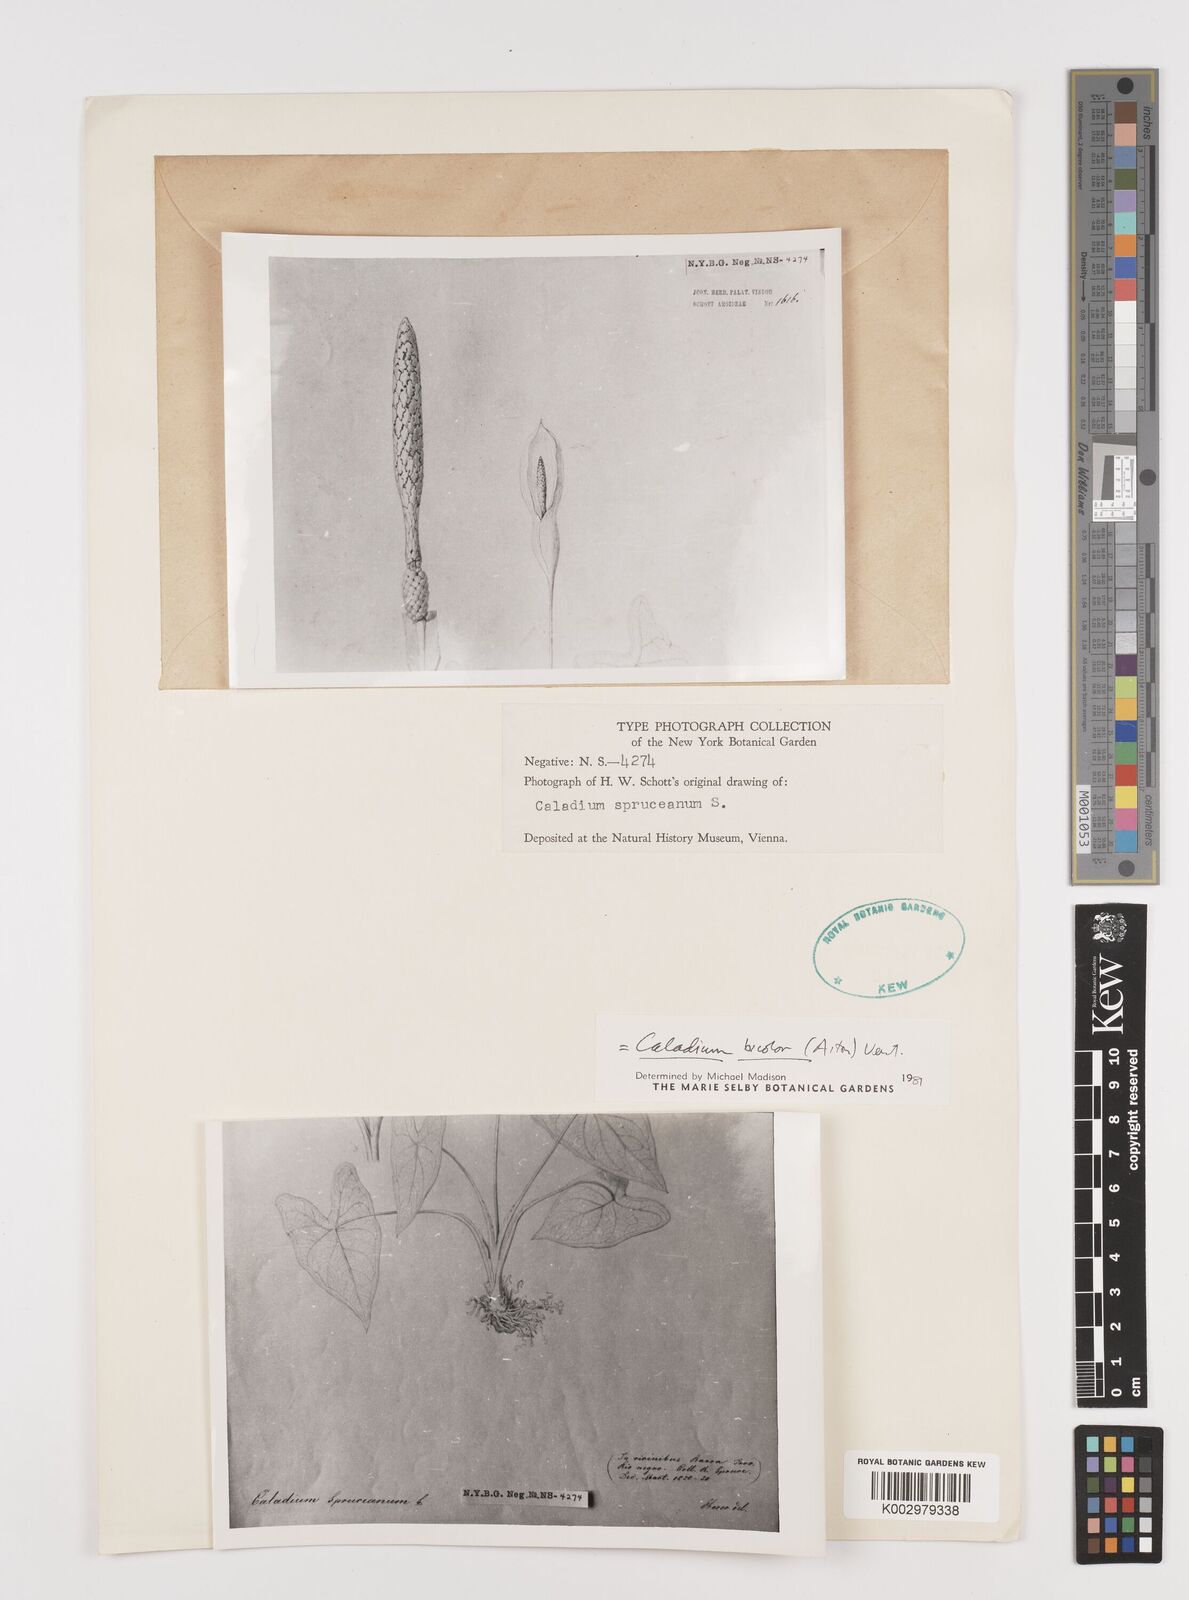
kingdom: Plantae
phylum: Tracheophyta
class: Liliopsida
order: Alismatales
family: Araceae
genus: Caladium
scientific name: Caladium bicolor
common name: Artist's pallet
